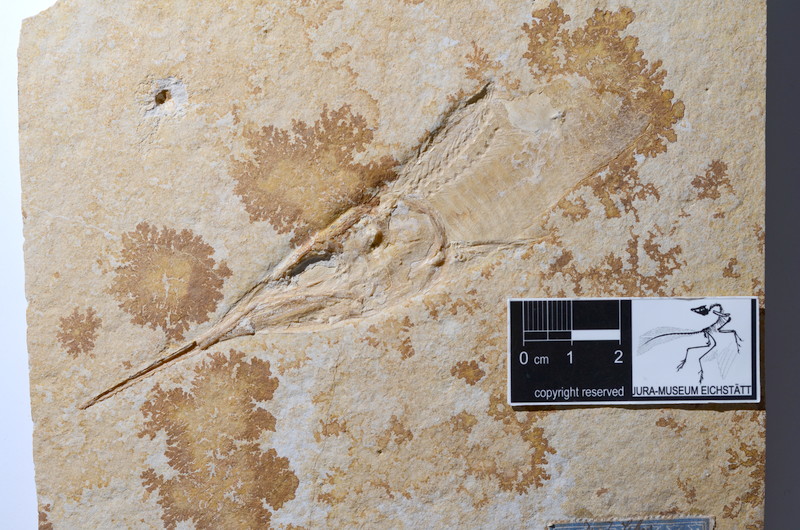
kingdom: Animalia
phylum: Chordata
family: Aspidorhynchidae
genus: Aspidorhynchus
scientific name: Aspidorhynchus acutirostris
